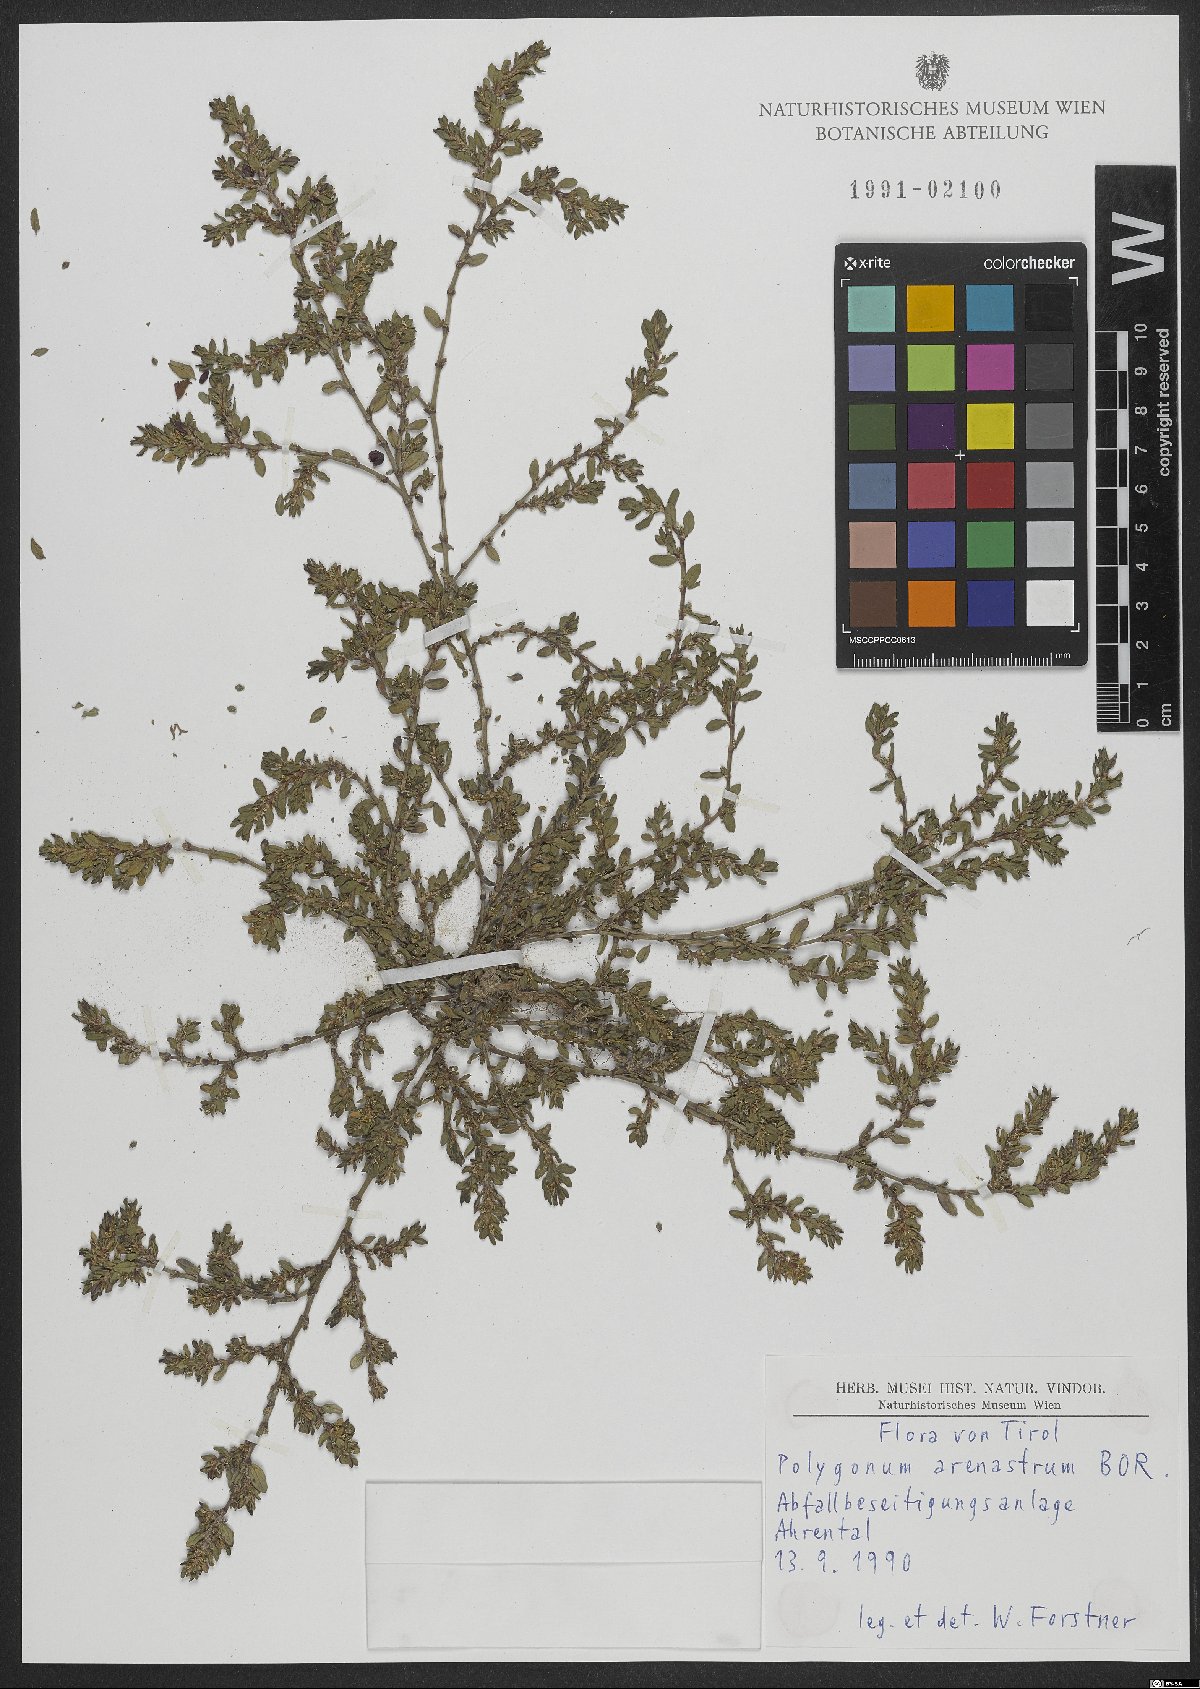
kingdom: Plantae
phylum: Tracheophyta
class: Magnoliopsida
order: Caryophyllales
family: Polygonaceae
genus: Polygonum
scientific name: Polygonum arenastrum
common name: Equal-leaved knotgrass
